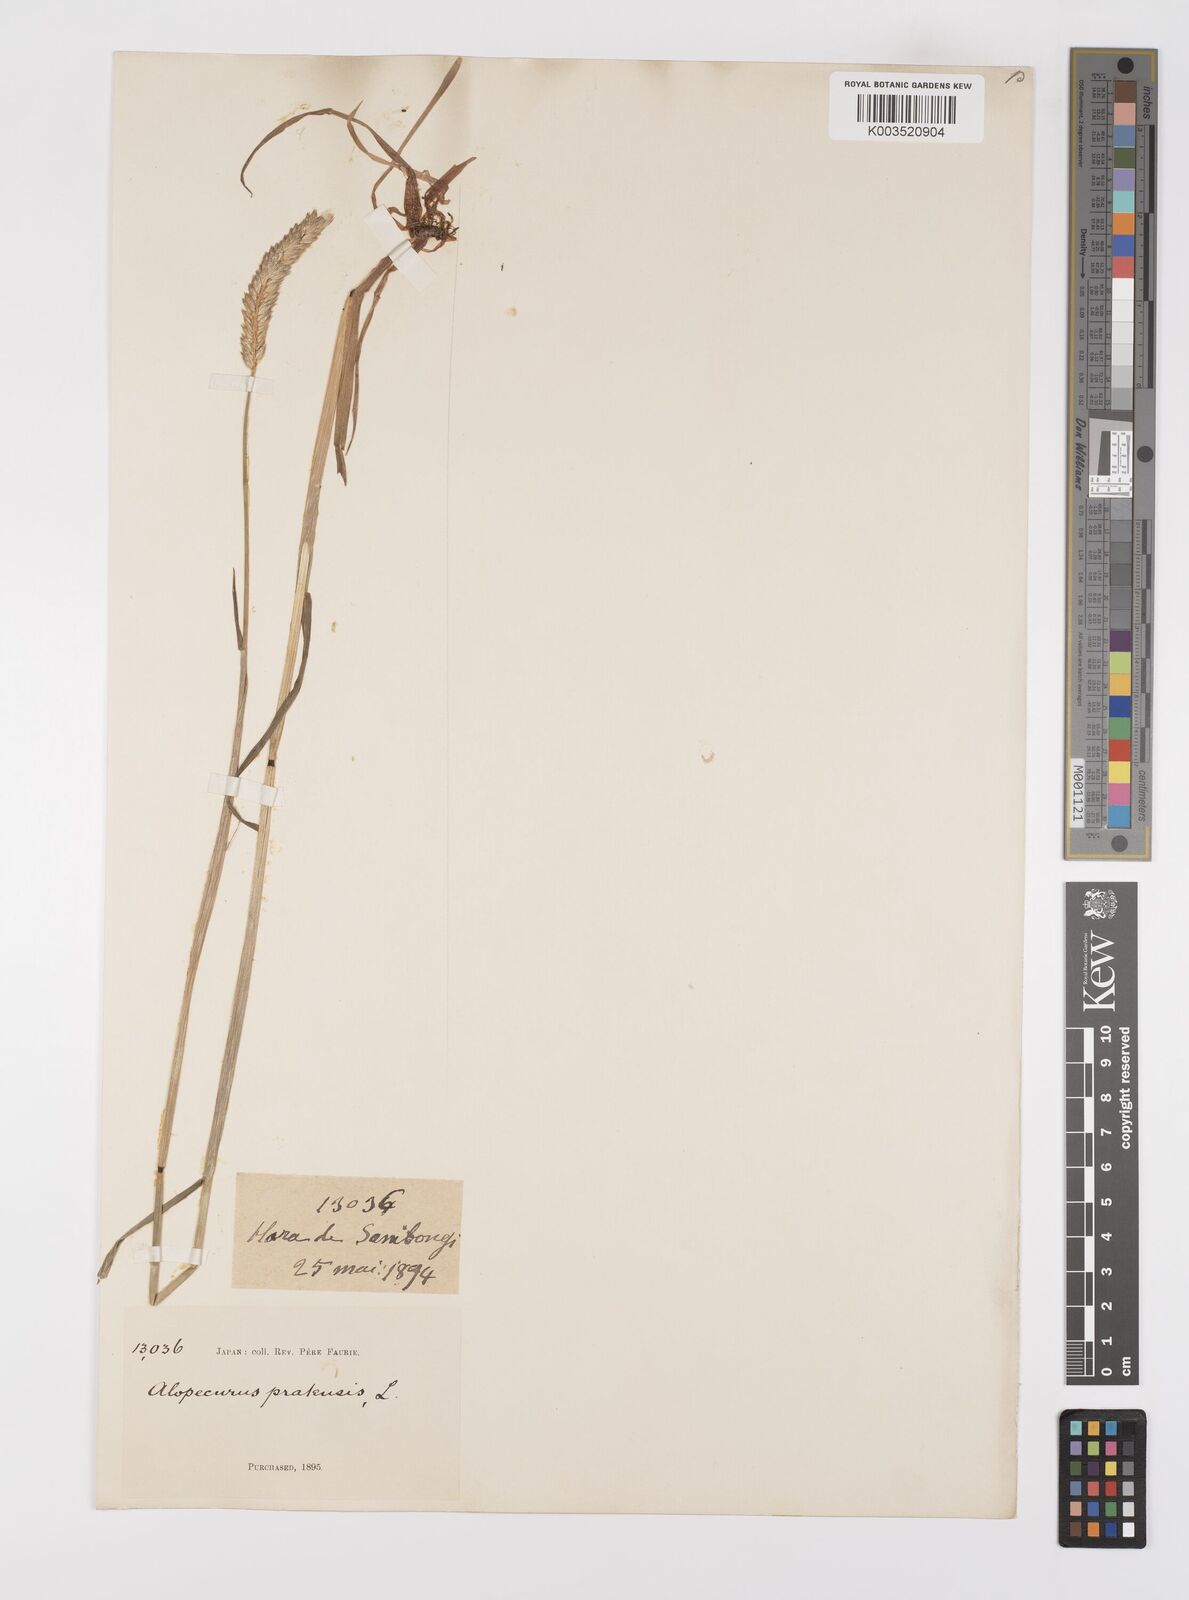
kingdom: Plantae
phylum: Tracheophyta
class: Liliopsida
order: Poales
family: Poaceae
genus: Alopecurus
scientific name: Alopecurus
